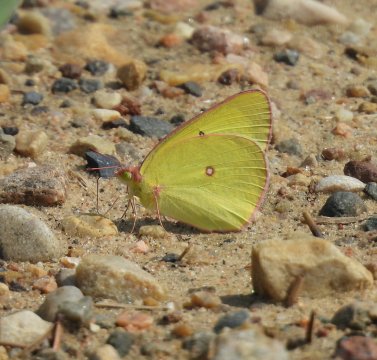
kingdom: Animalia
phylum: Arthropoda
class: Insecta
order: Lepidoptera
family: Pieridae
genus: Colias
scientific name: Colias interior
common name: Pink-edged Sulphur
